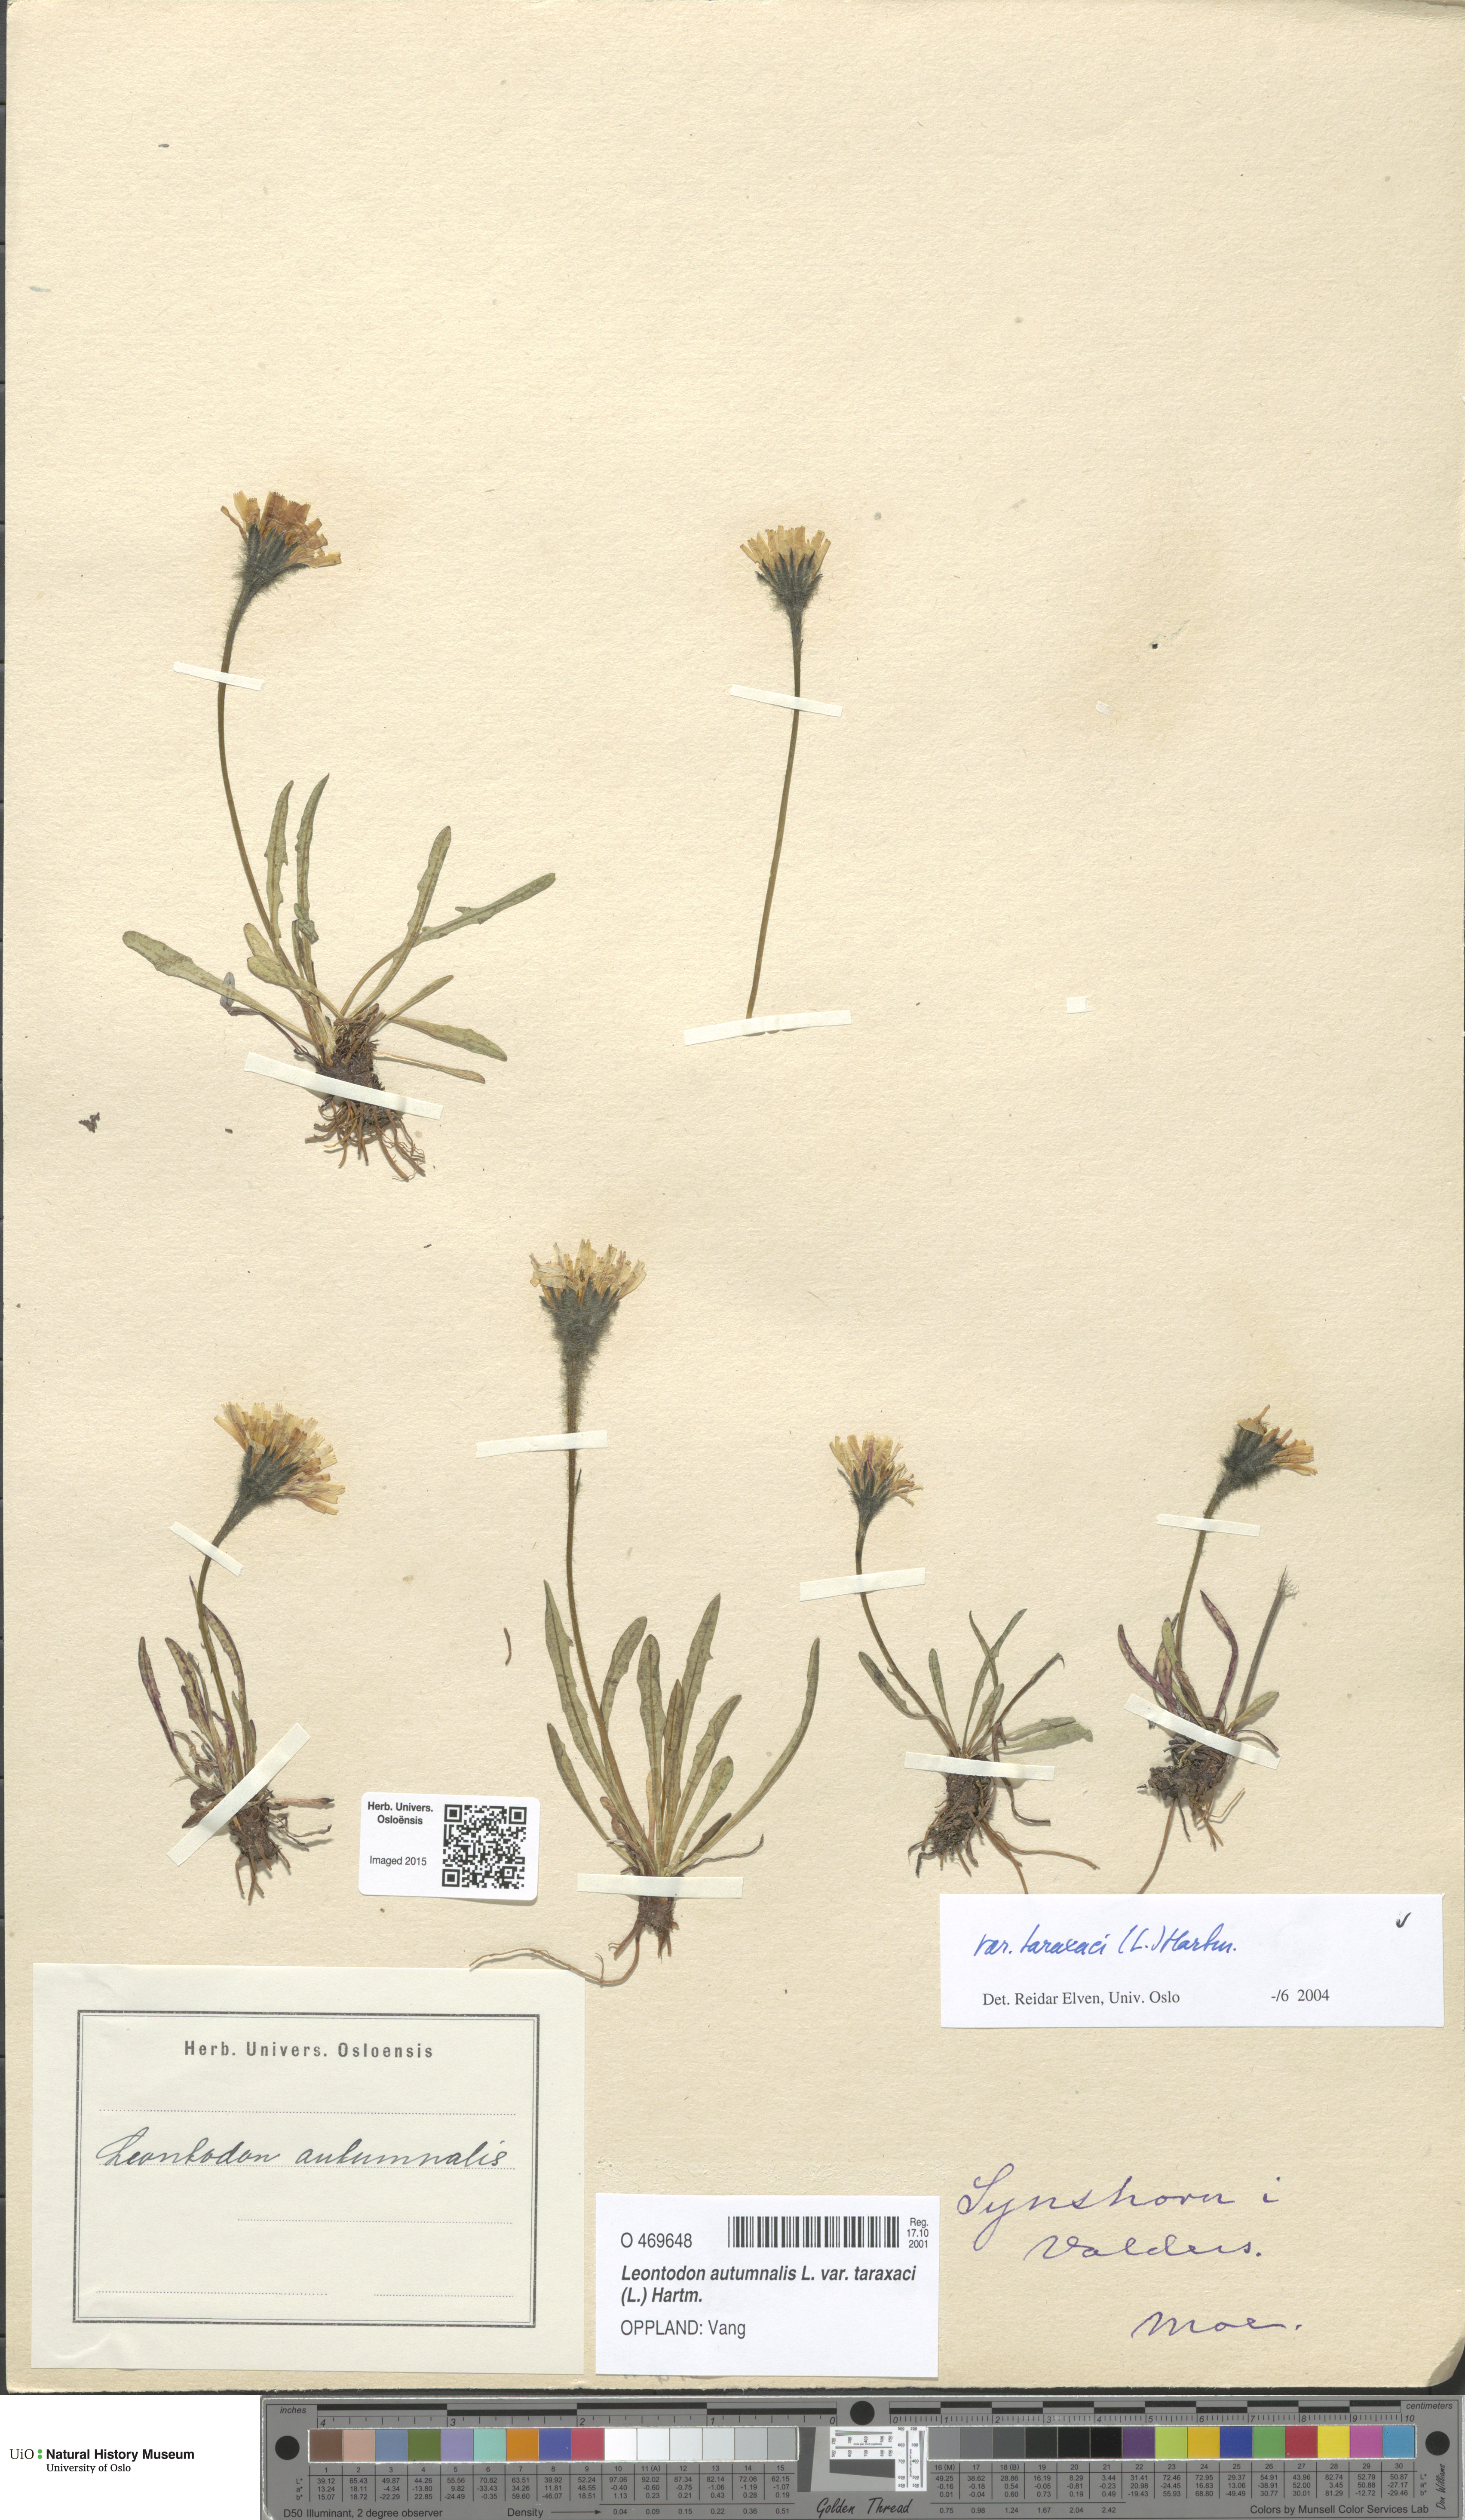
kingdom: Plantae
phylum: Tracheophyta
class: Magnoliopsida
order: Asterales
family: Asteraceae
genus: Scorzoneroides
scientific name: Scorzoneroides autumnalis
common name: Autumn hawkbit
